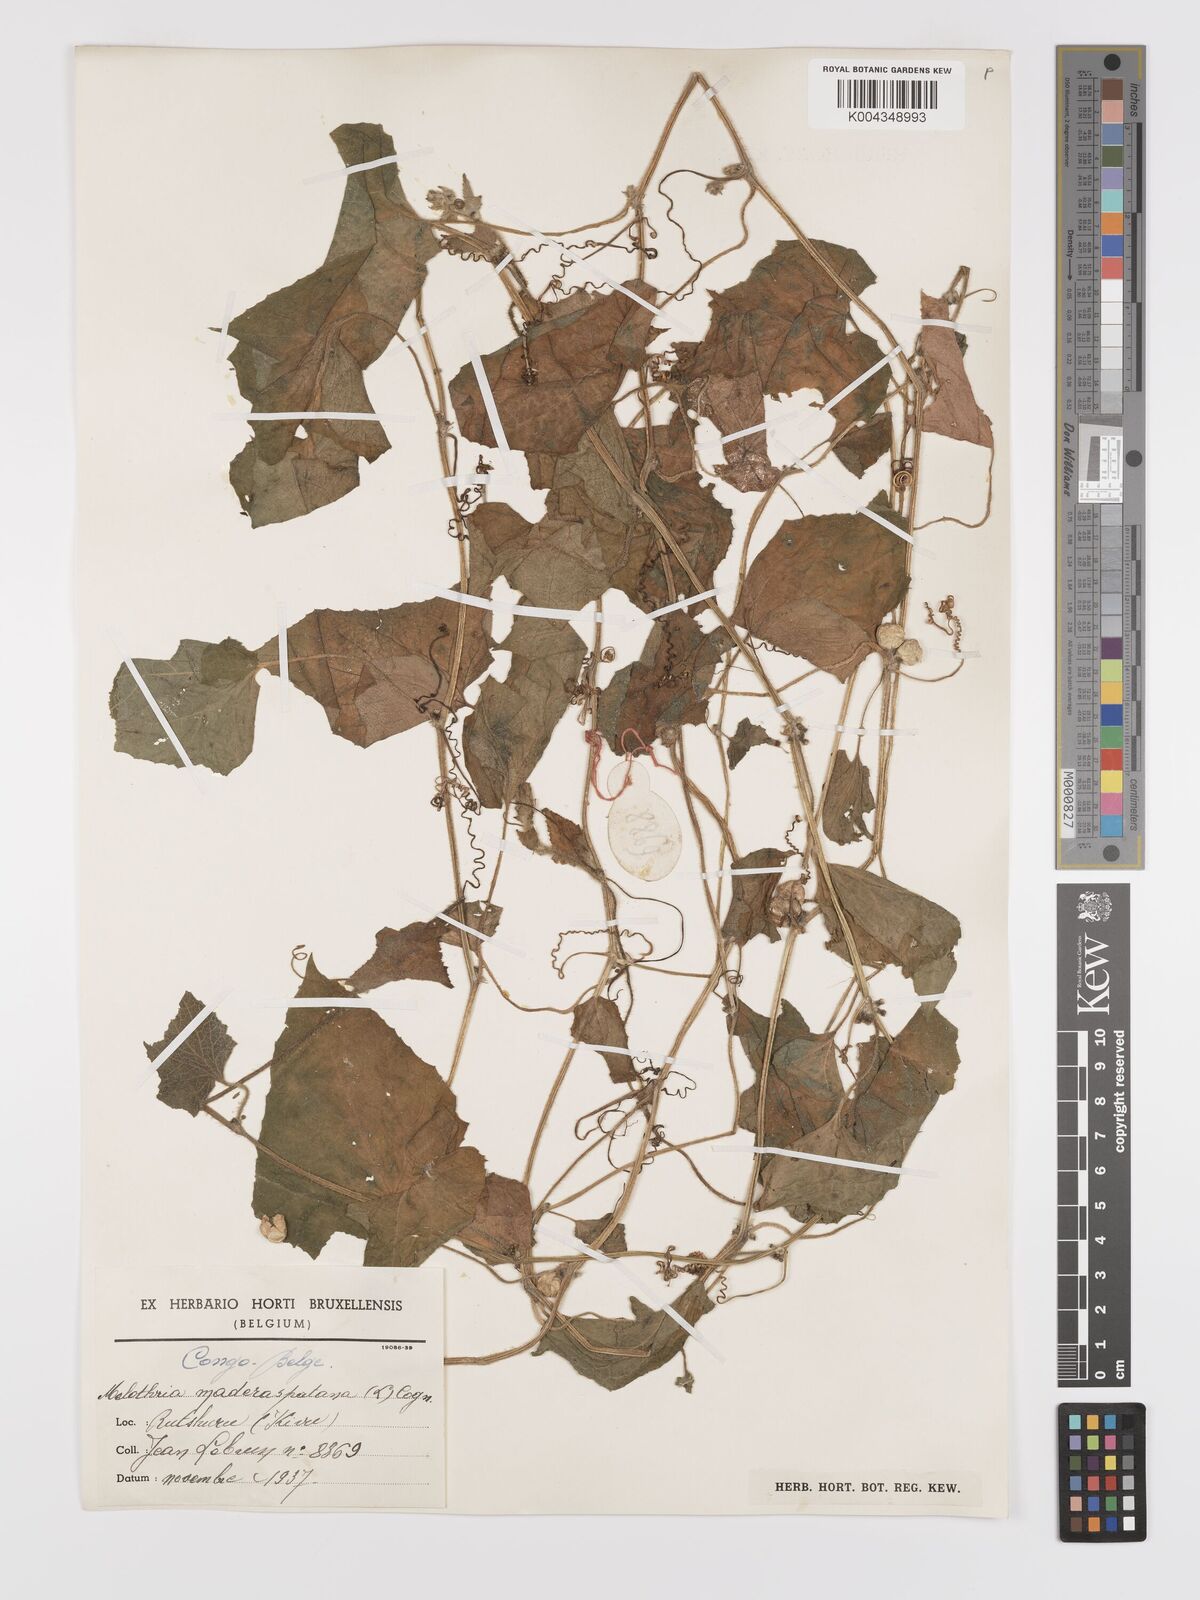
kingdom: Plantae
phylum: Tracheophyta
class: Magnoliopsida
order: Cucurbitales
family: Cucurbitaceae
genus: Cucumis
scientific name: Cucumis maderaspatanus
